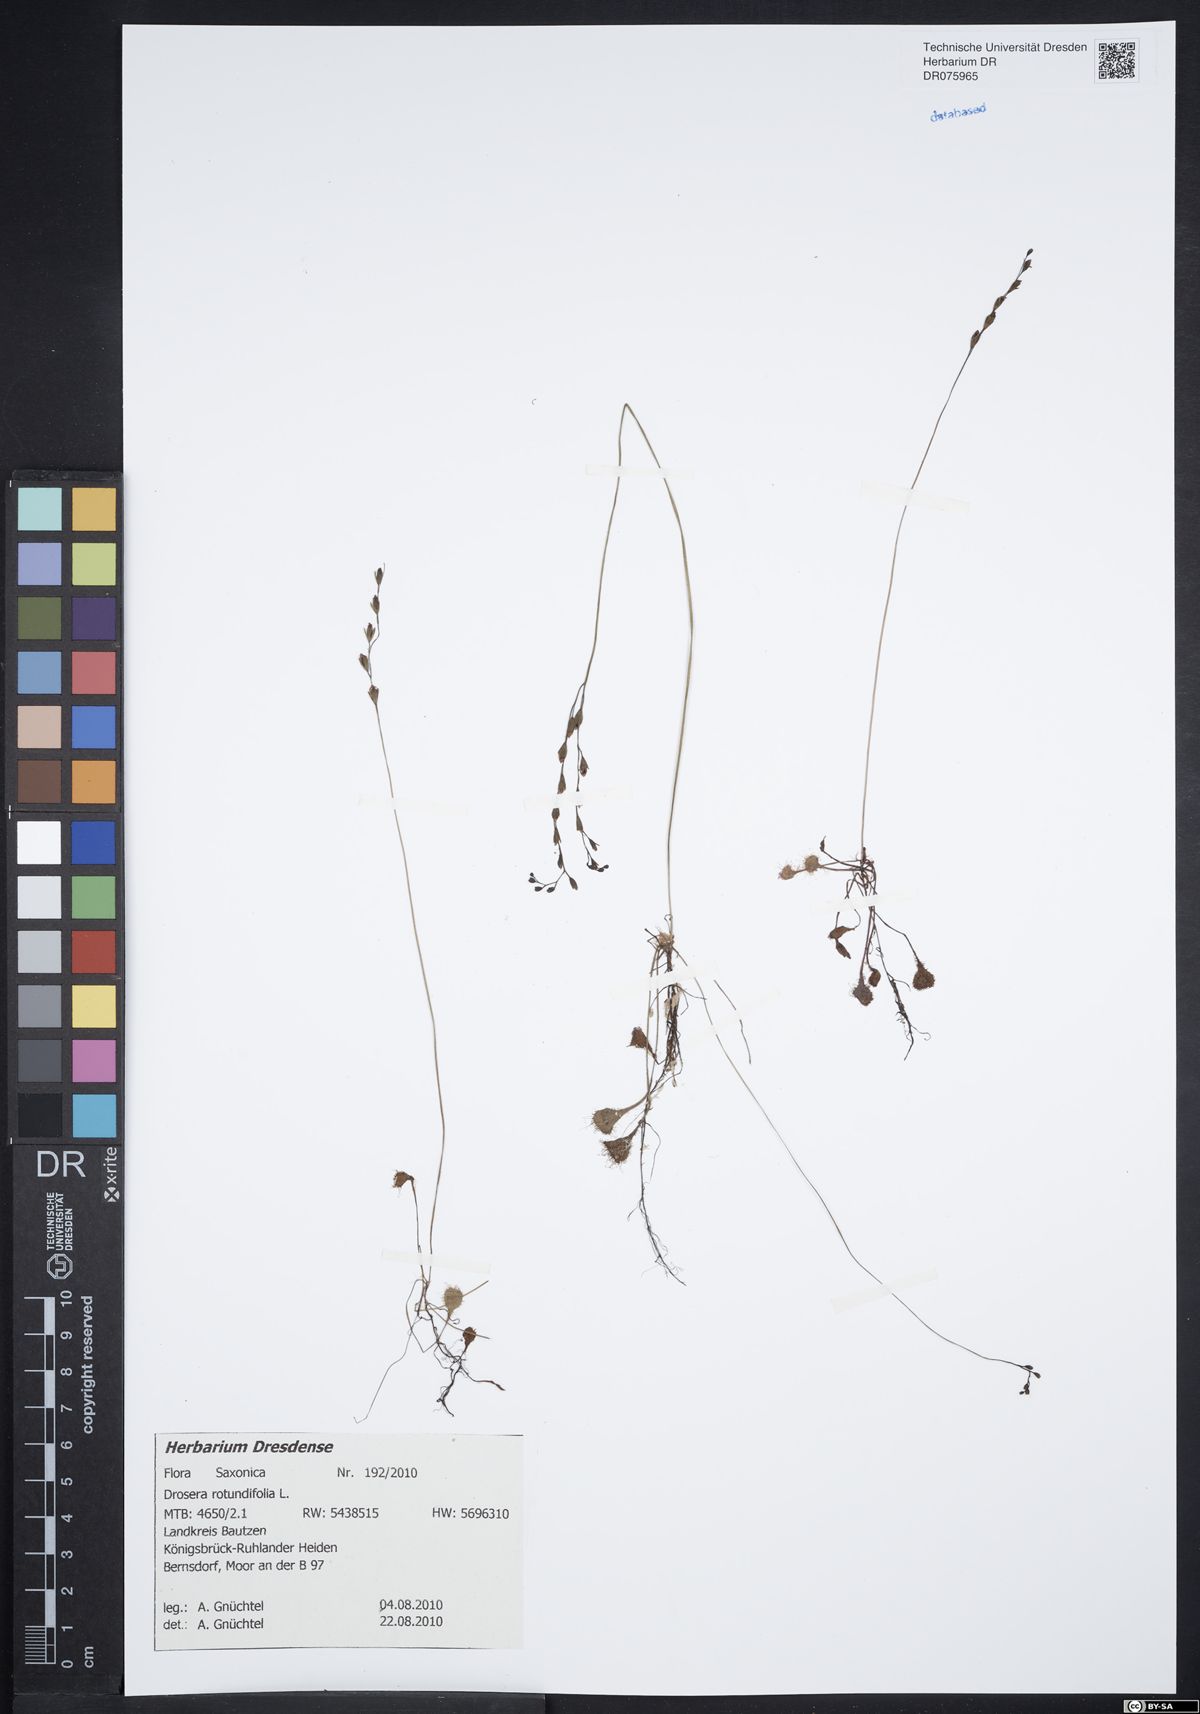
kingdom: Plantae
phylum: Tracheophyta
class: Magnoliopsida
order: Caryophyllales
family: Droseraceae
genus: Drosera
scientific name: Drosera rotundifolia
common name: Round-leaved sundew
